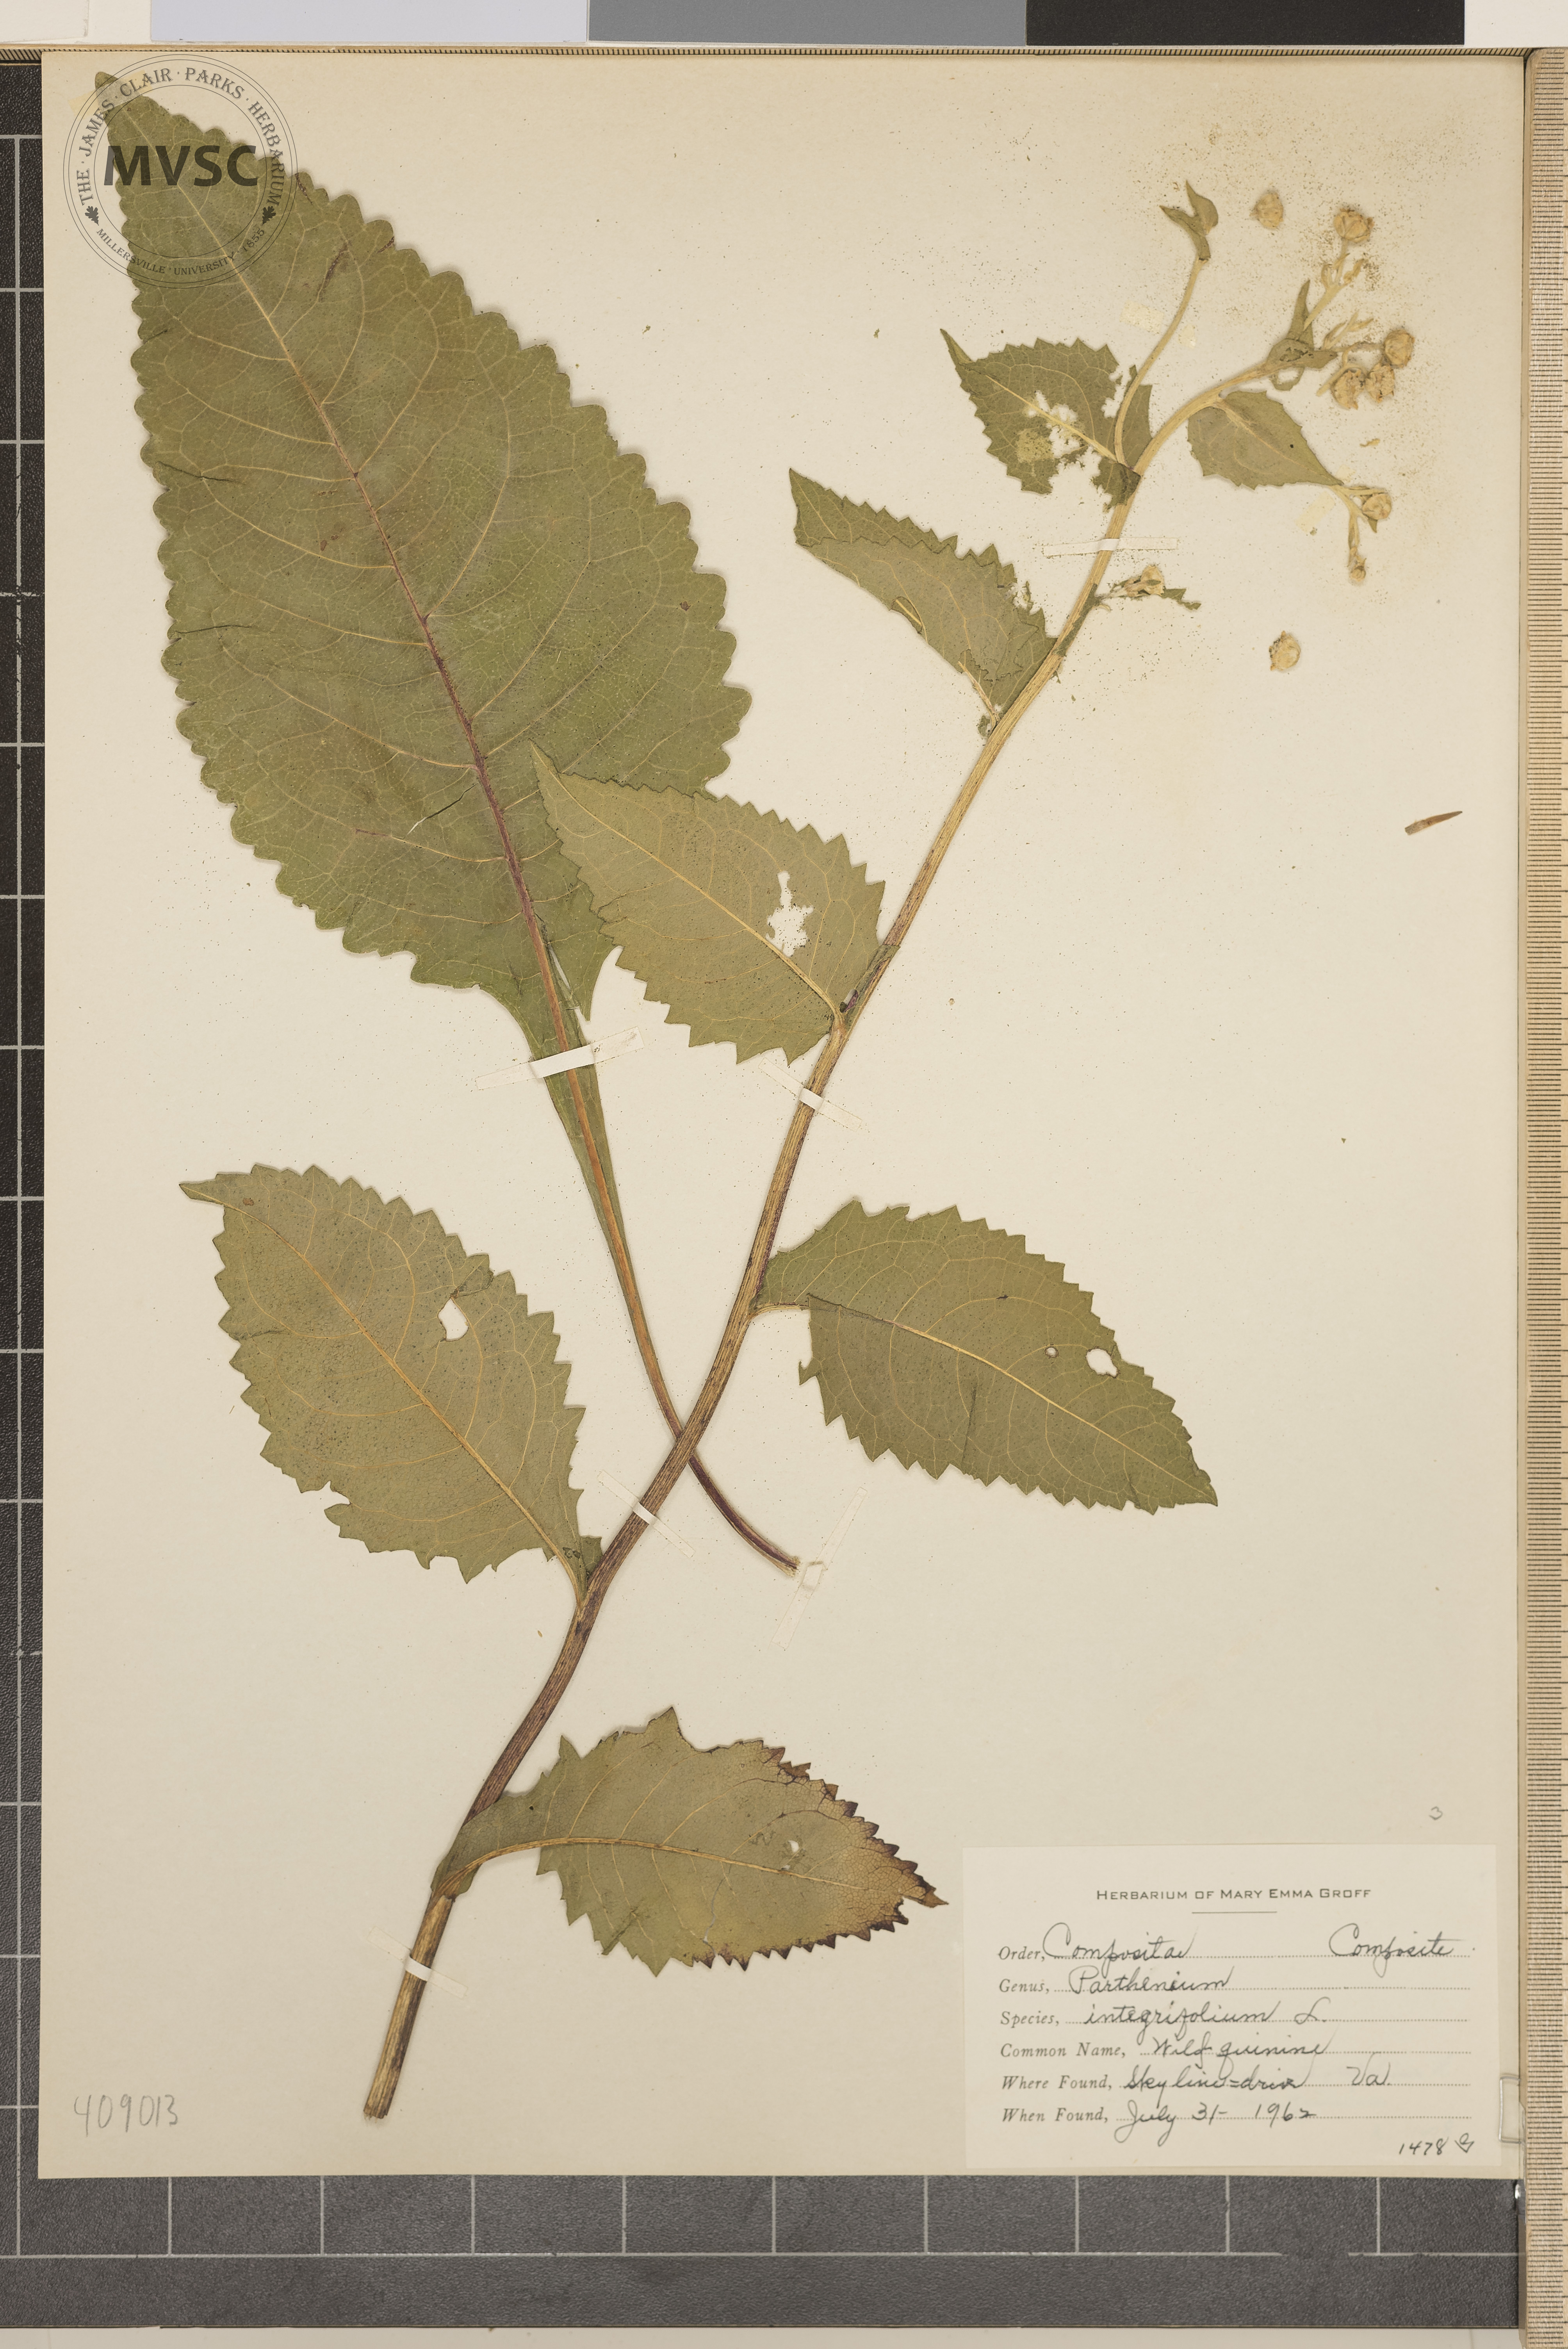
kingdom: Plantae
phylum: Tracheophyta
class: Magnoliopsida
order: Asterales
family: Asteraceae
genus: Parthenium
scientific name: Parthenium integrifolium
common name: Wild quinine
